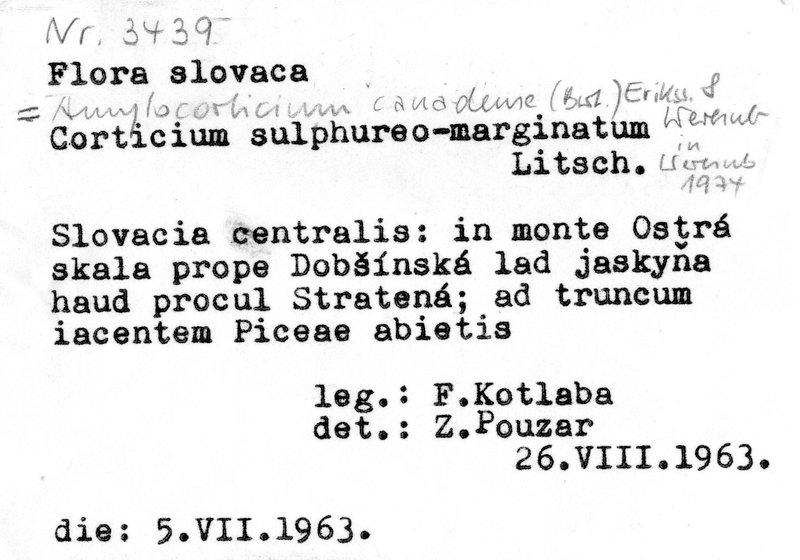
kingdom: Fungi
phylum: Basidiomycota
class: Agaricomycetes
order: Amylocorticiales
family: Amylocorticiaceae
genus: Amylocorticium
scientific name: Amylocorticium canadense
